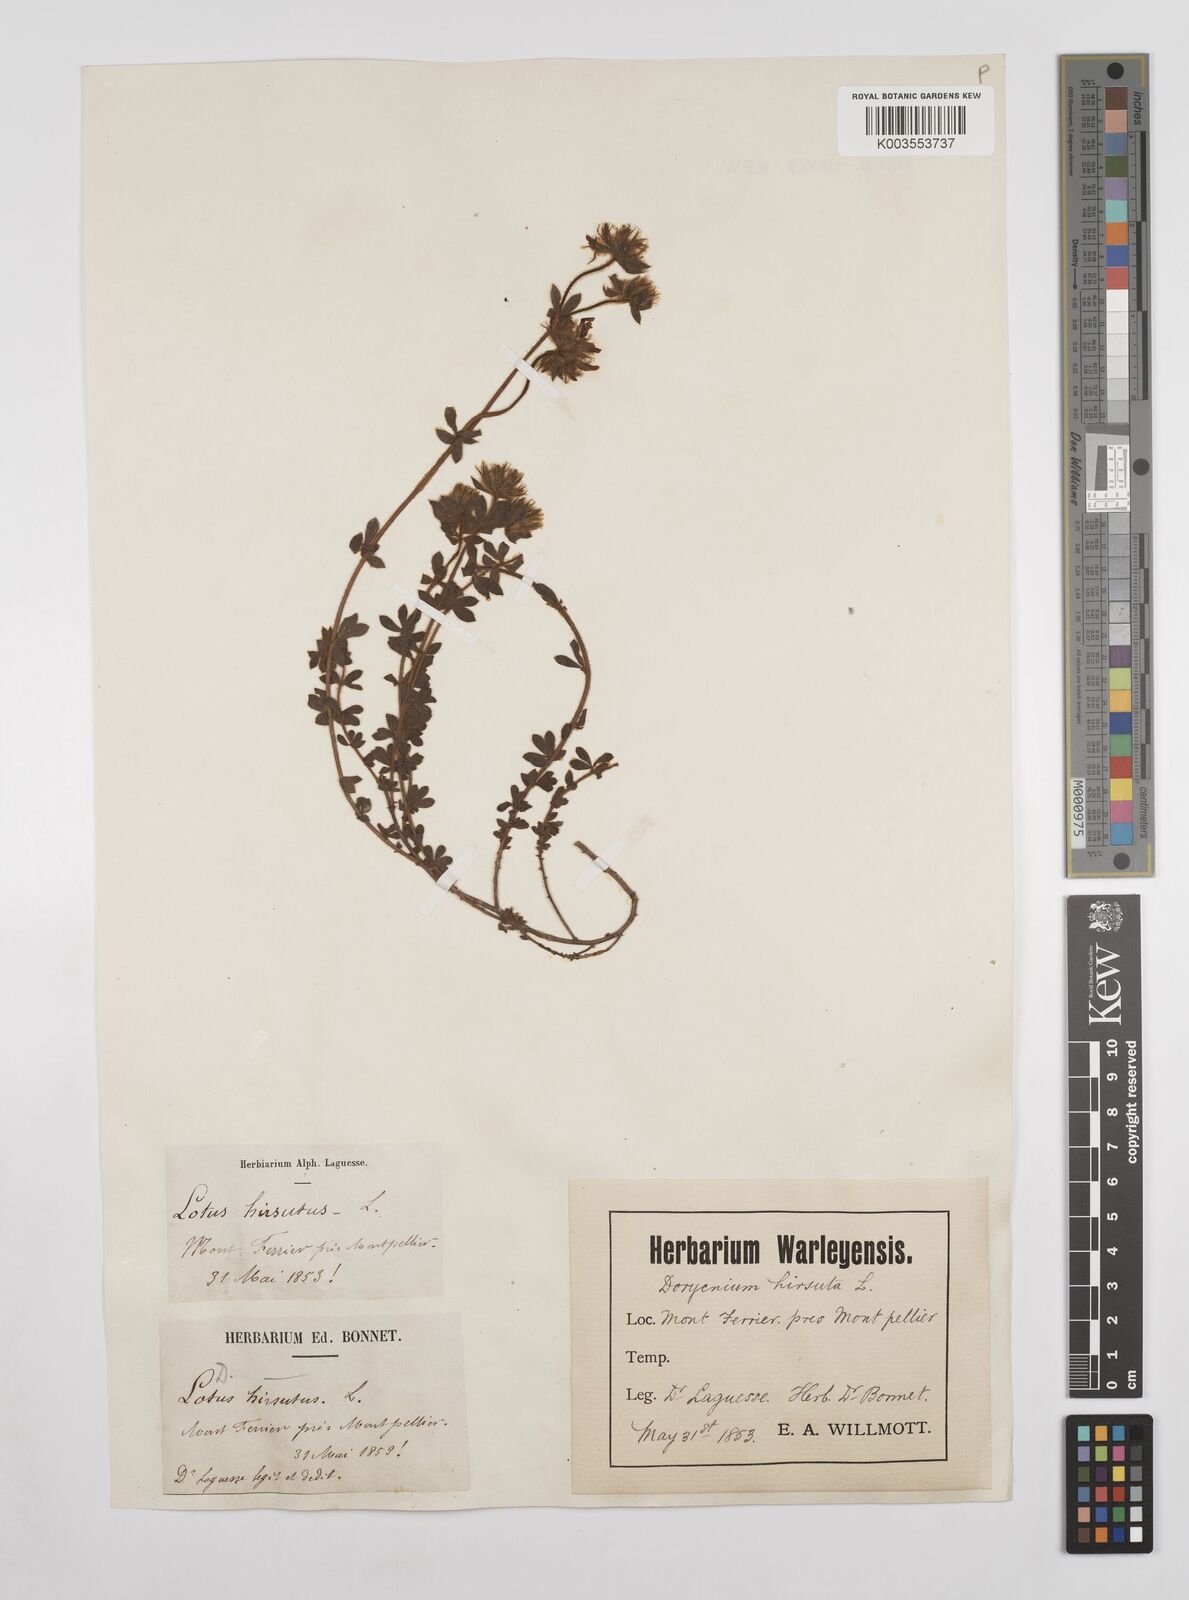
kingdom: Plantae
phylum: Tracheophyta
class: Magnoliopsida
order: Fabales
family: Fabaceae
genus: Lotus
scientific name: Lotus hirsutus
